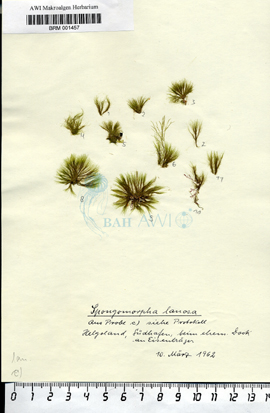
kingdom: Plantae
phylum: Chlorophyta
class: Ulvophyceae
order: Ulotrichales
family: Ulotrichaceae
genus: Spongomorpha
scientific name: Spongomorpha aeruginosa
